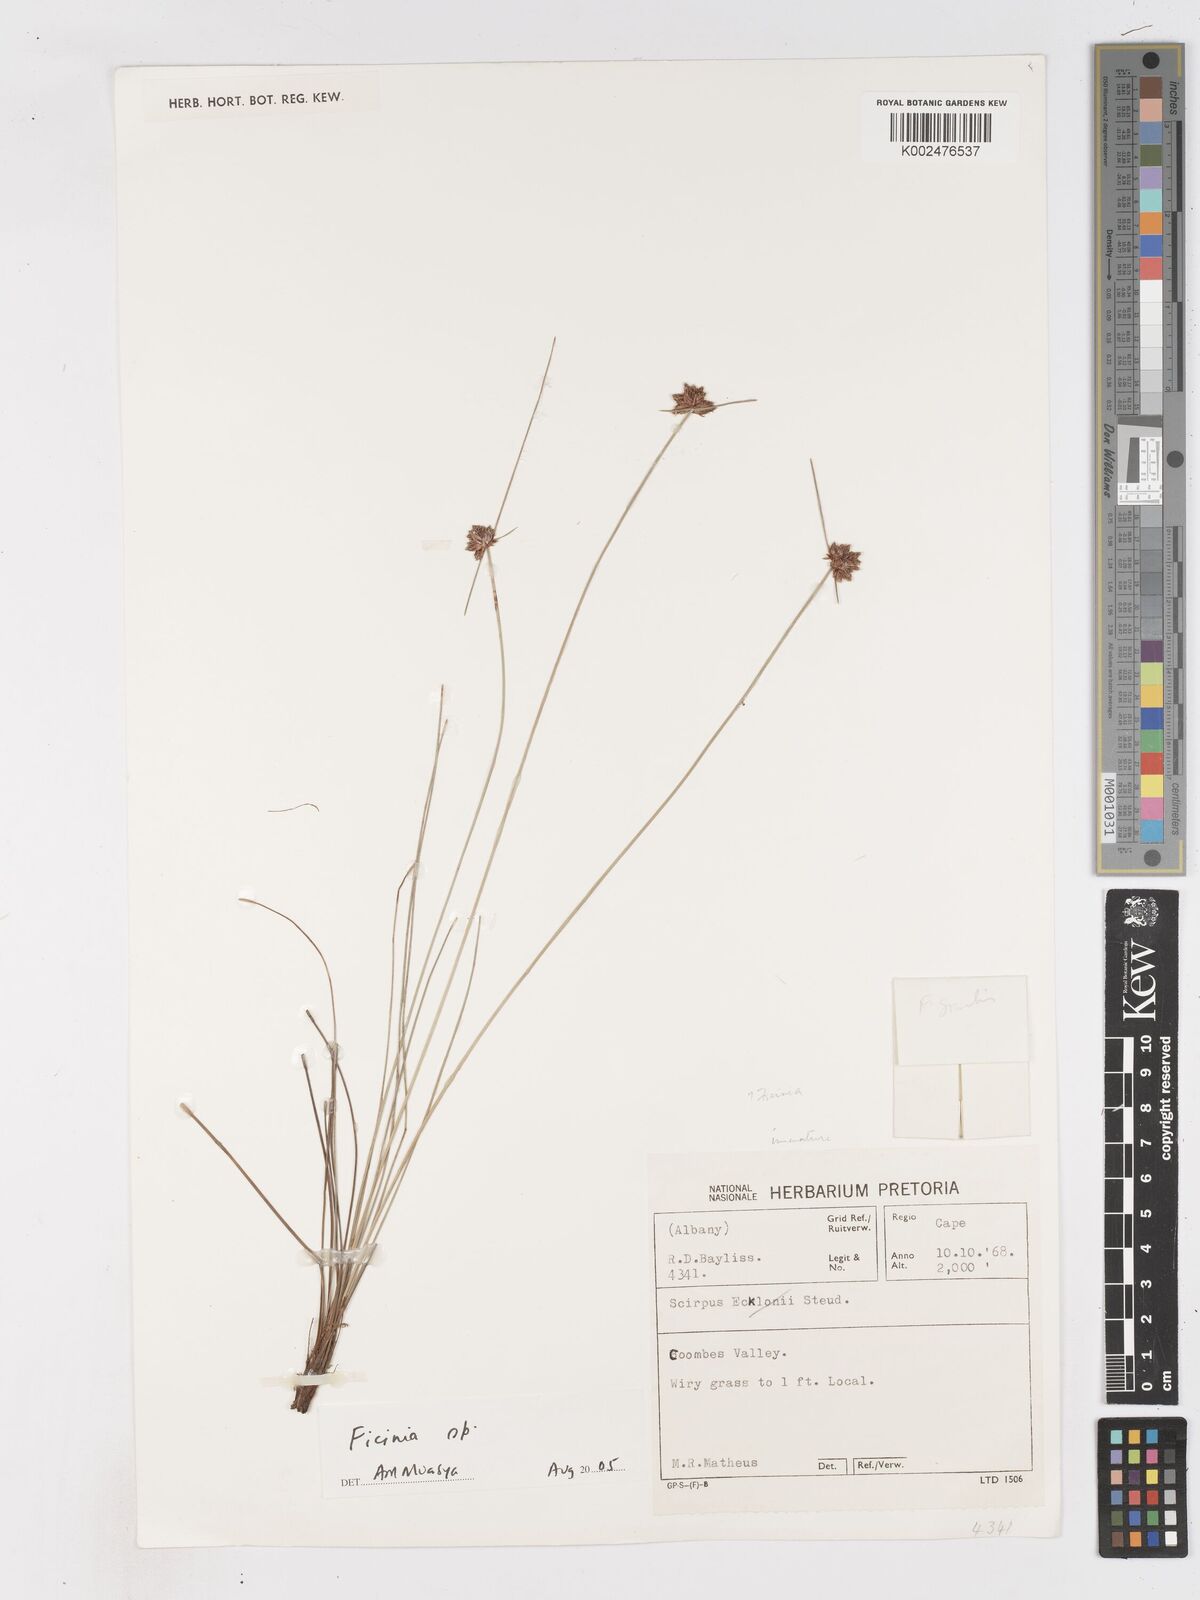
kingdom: Plantae
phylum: Tracheophyta
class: Liliopsida
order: Poales
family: Cyperaceae
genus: Ficinia
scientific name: Ficinia
